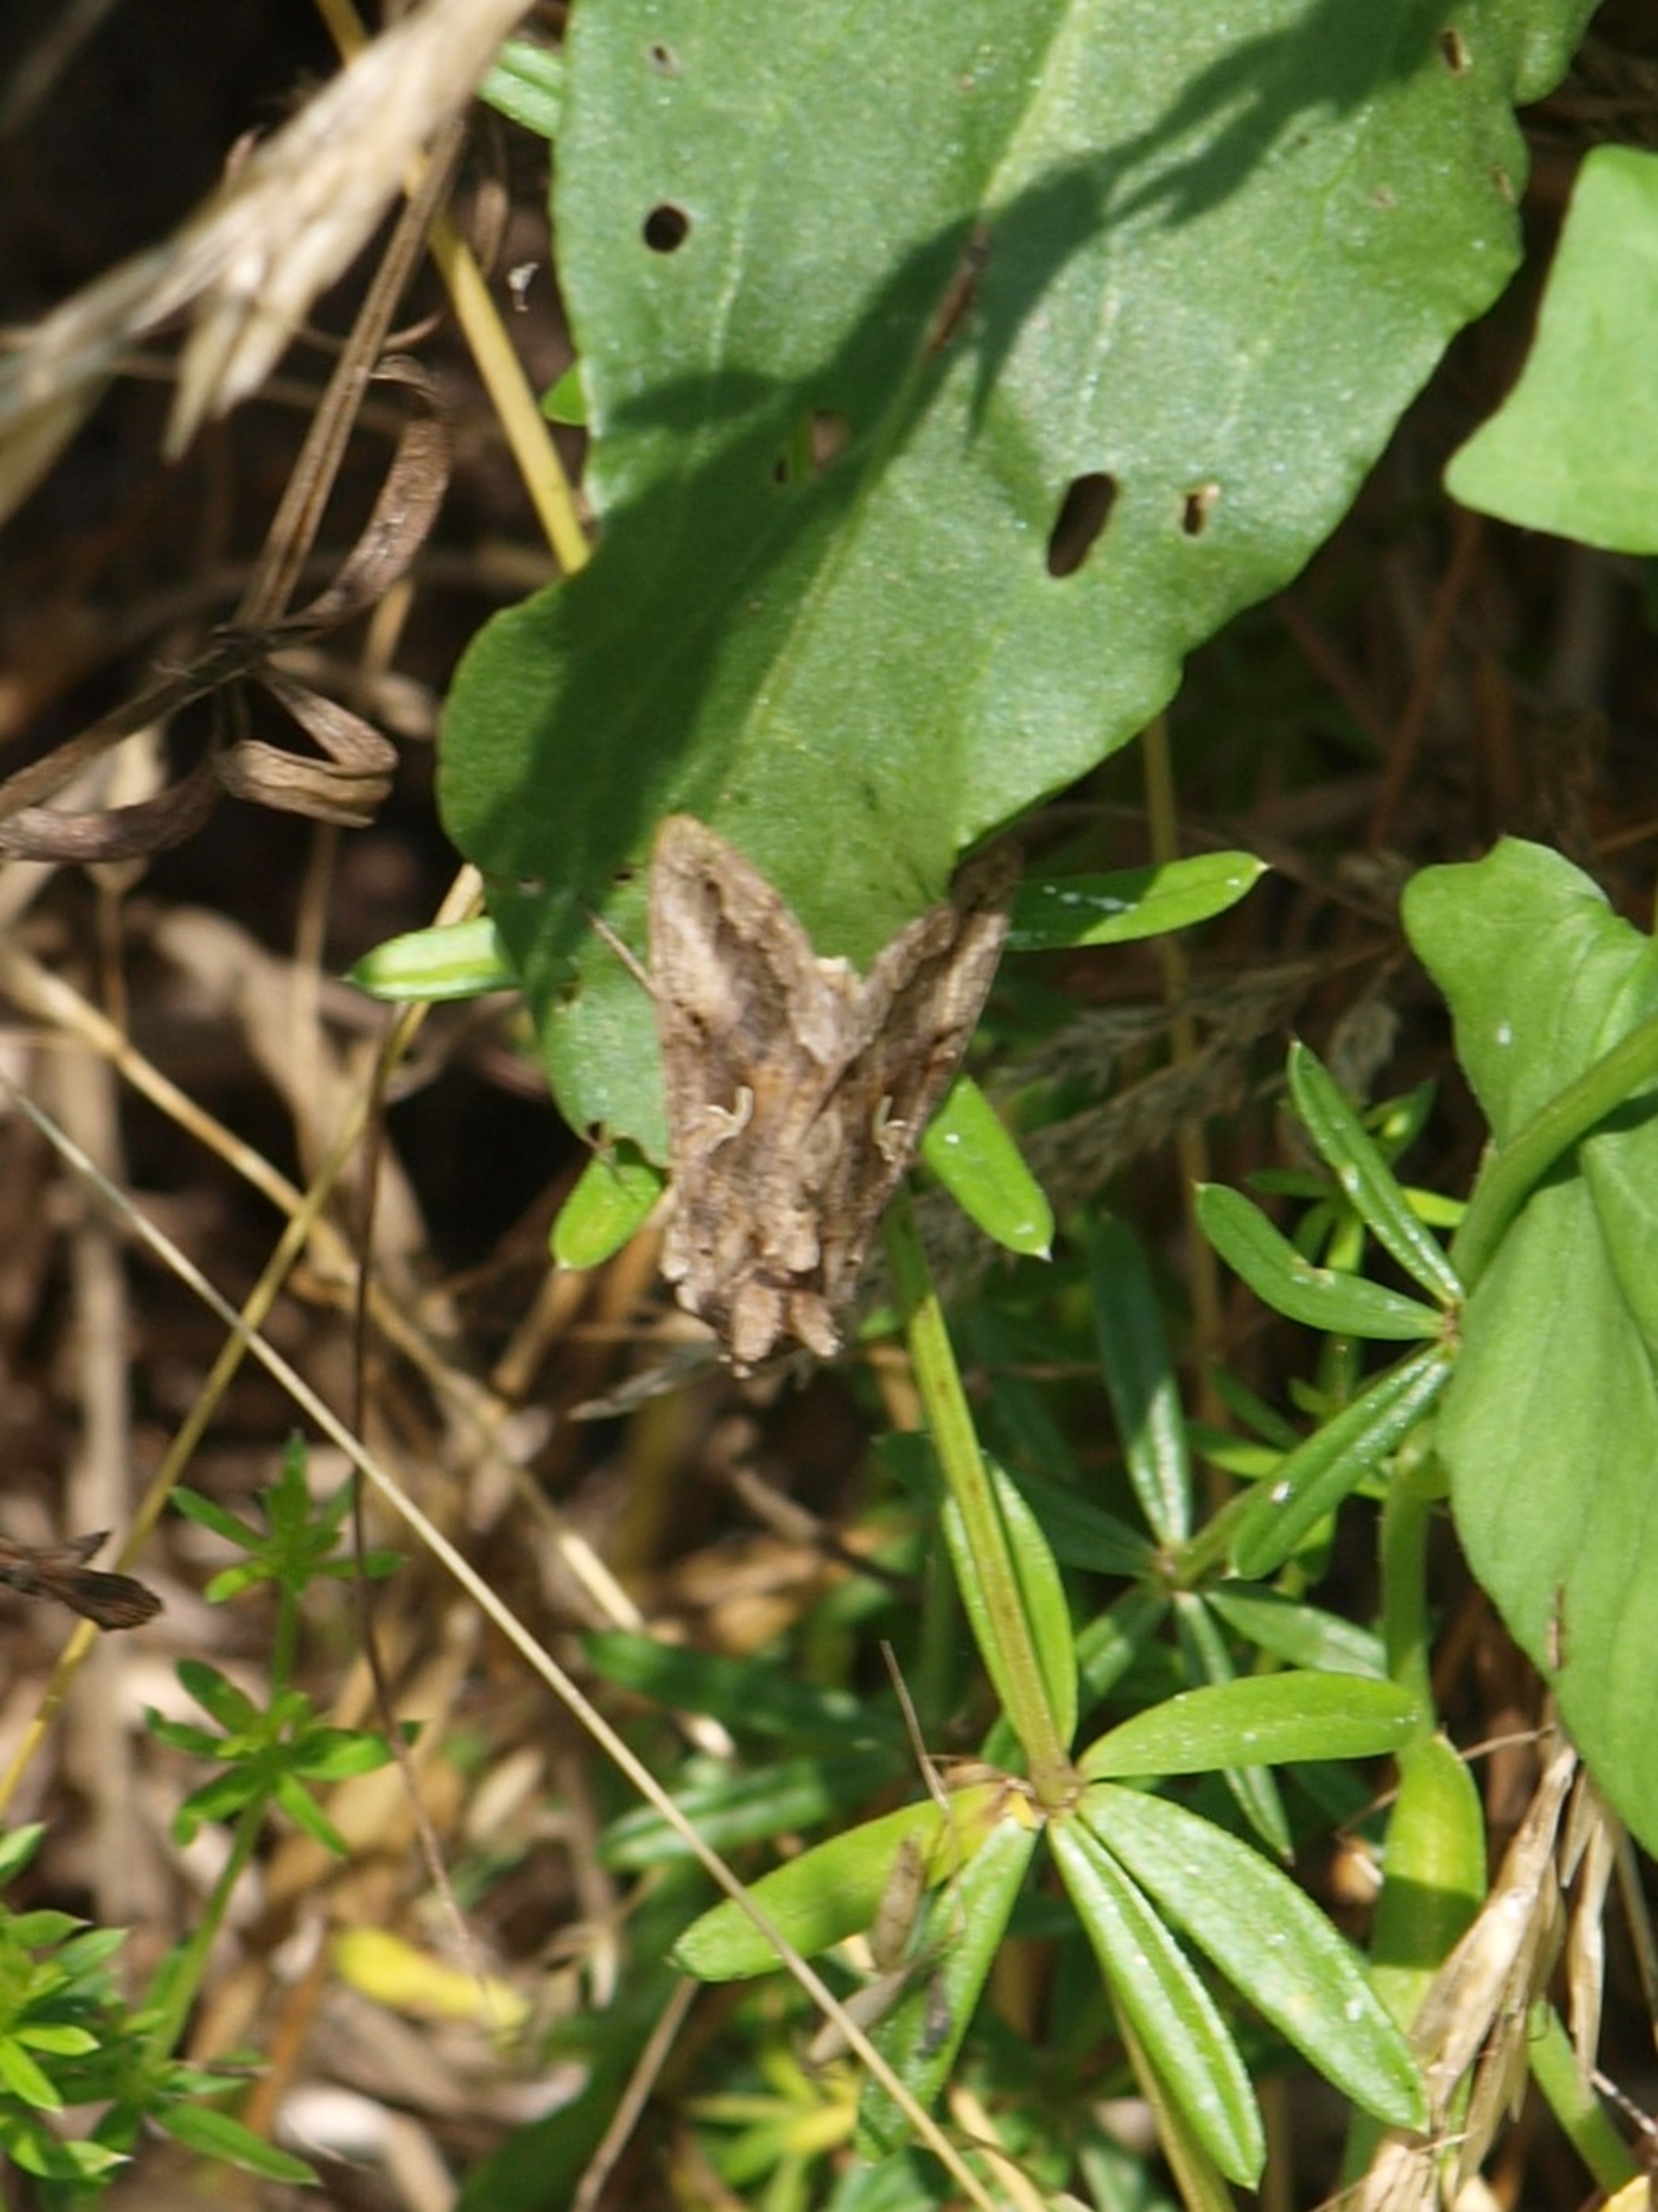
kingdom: Animalia
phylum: Arthropoda
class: Insecta
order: Lepidoptera
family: Noctuidae
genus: Autographa
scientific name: Autographa gamma
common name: Gammaugle
